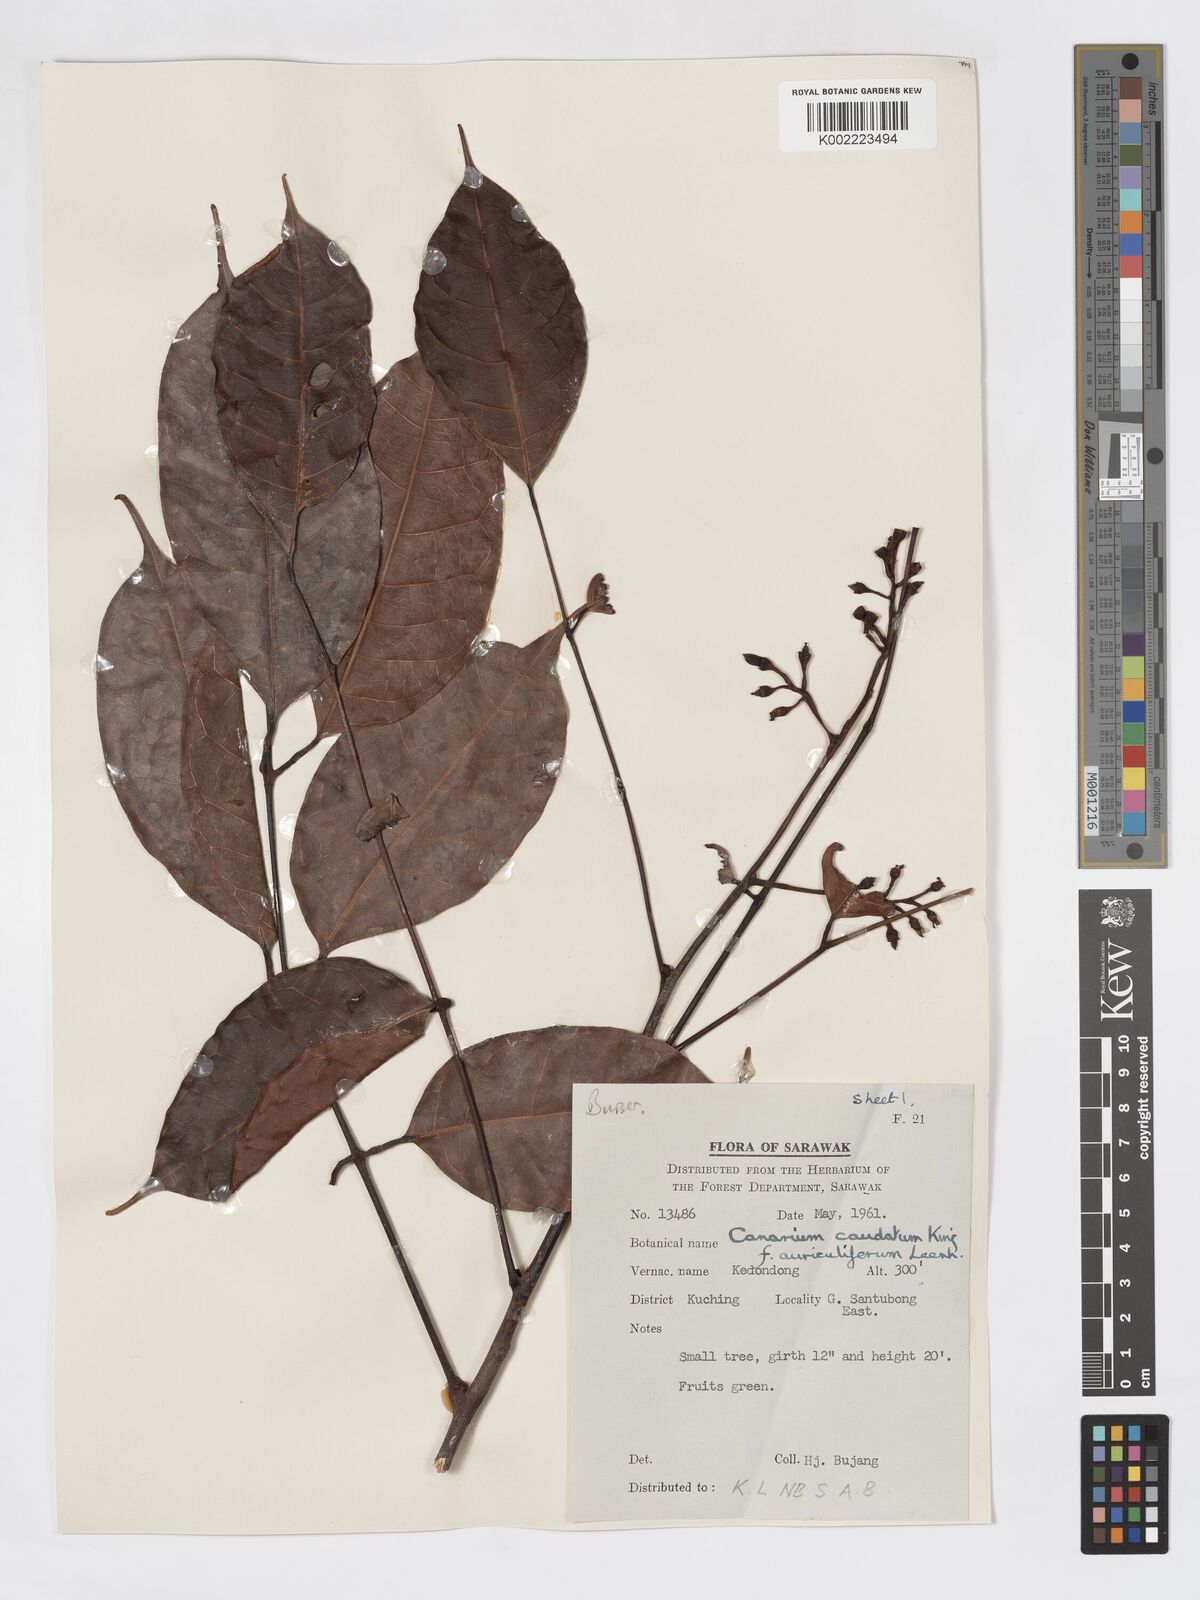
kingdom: Plantae
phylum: Tracheophyta
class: Magnoliopsida
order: Sapindales
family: Burseraceae
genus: Canarium
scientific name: Canarium caudatum
